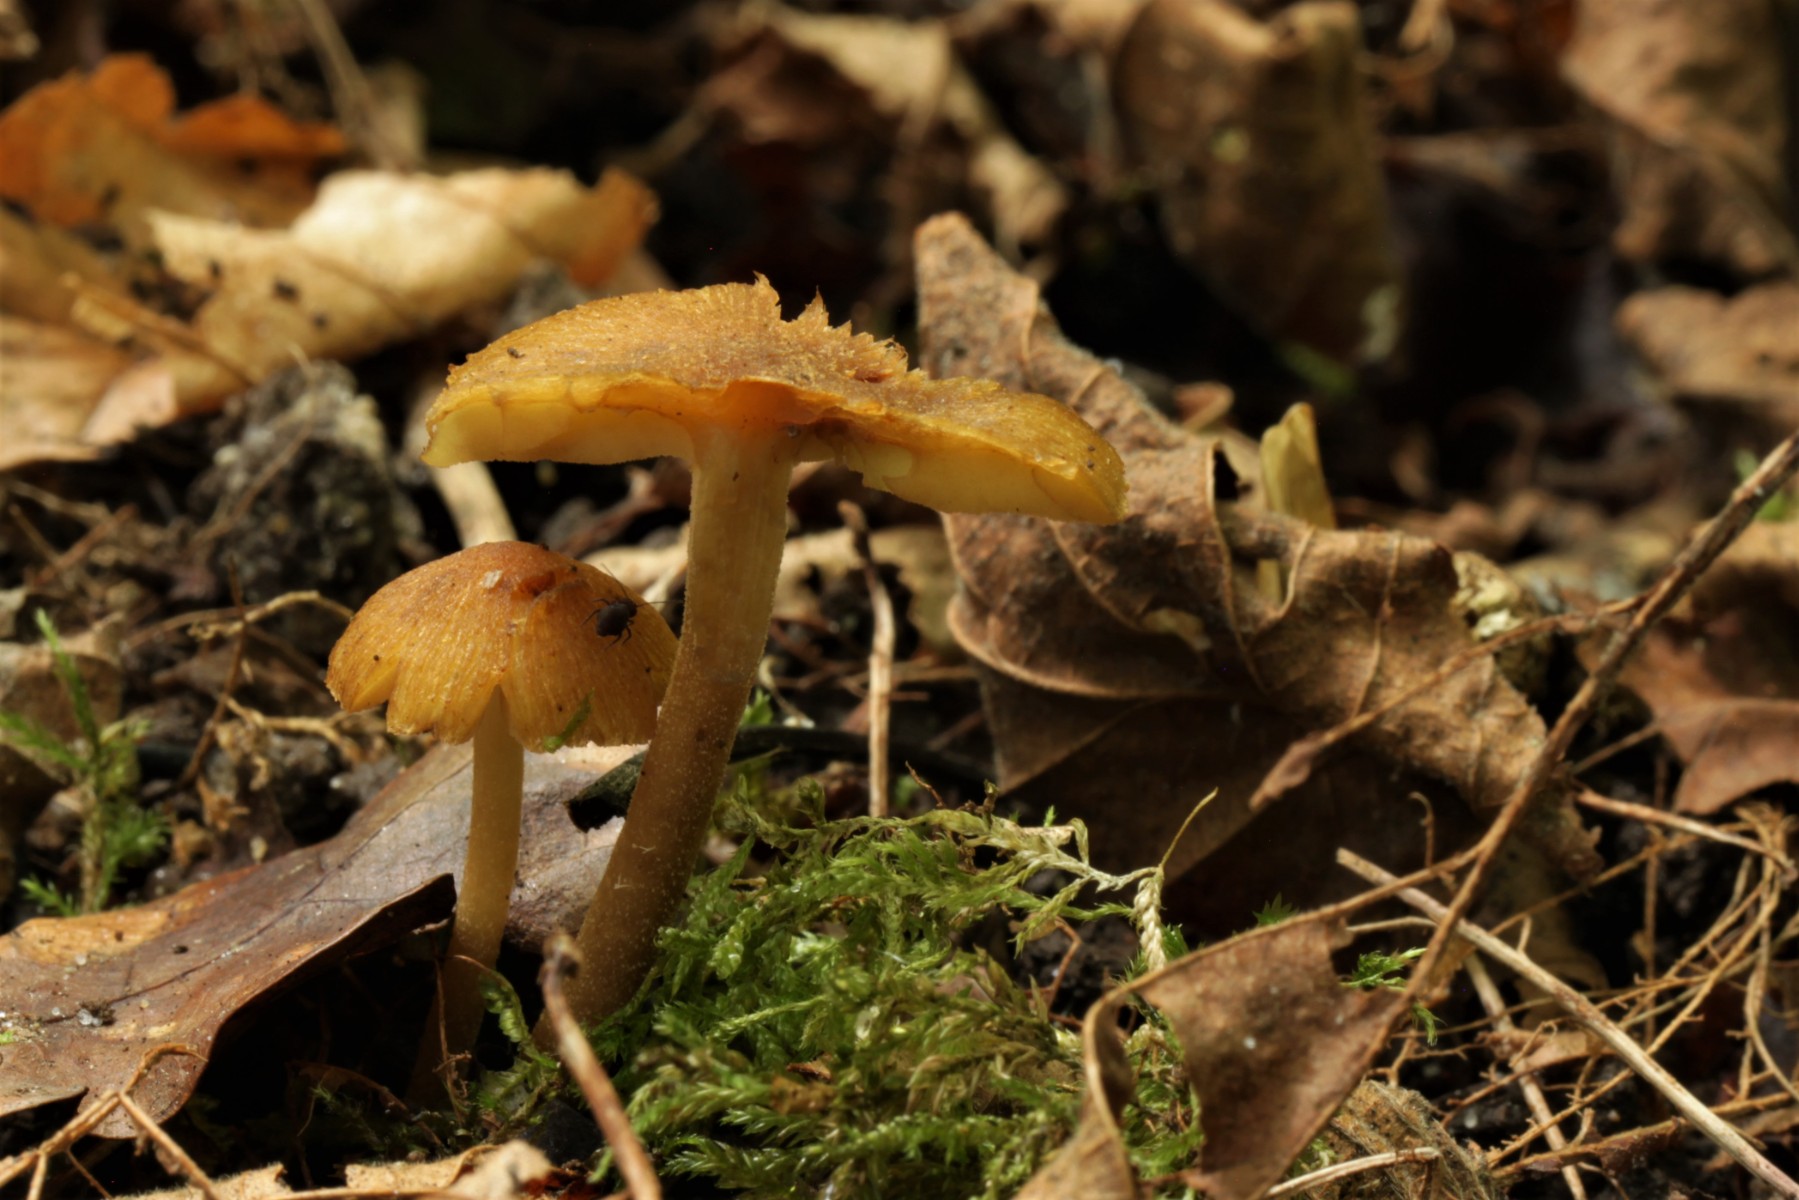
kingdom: Fungi
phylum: Basidiomycota
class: Agaricomycetes
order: Agaricales
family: Inocybaceae
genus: Inocybe
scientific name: Inocybe pholiotinoides
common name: dansende trævlhat
